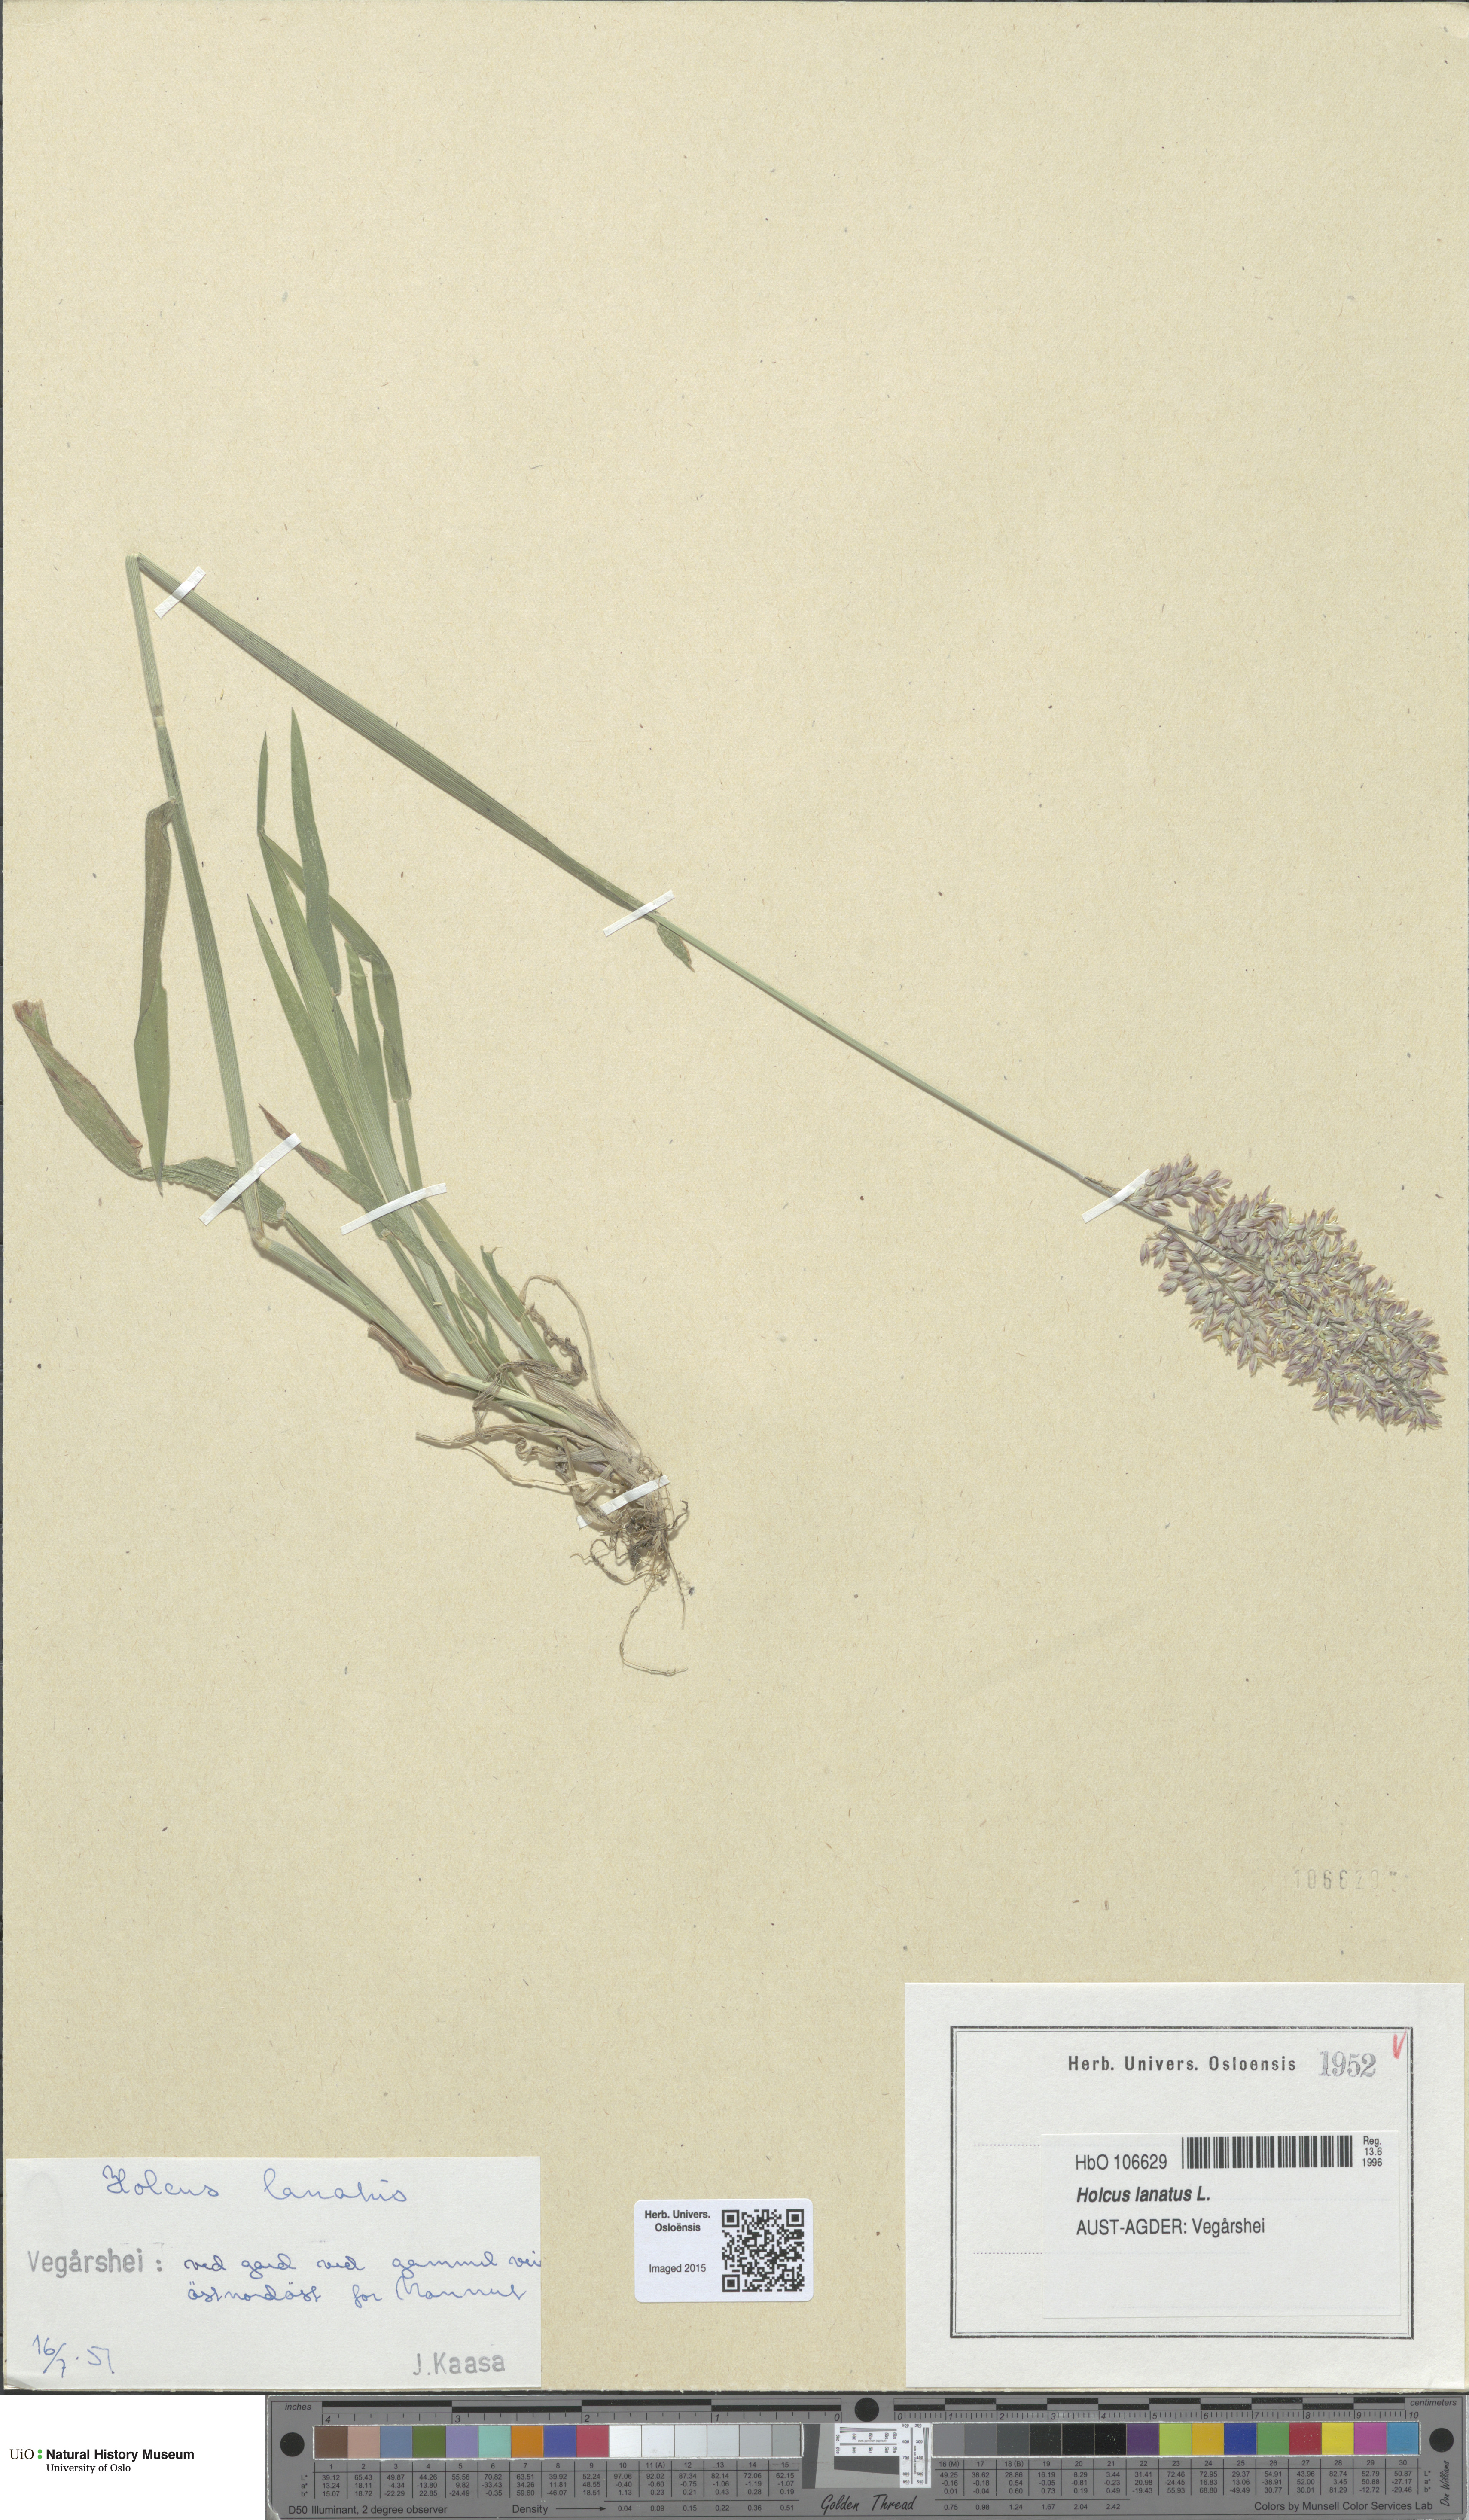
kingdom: Plantae
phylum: Tracheophyta
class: Liliopsida
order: Poales
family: Poaceae
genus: Holcus
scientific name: Holcus lanatus
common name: Yorkshire-fog
